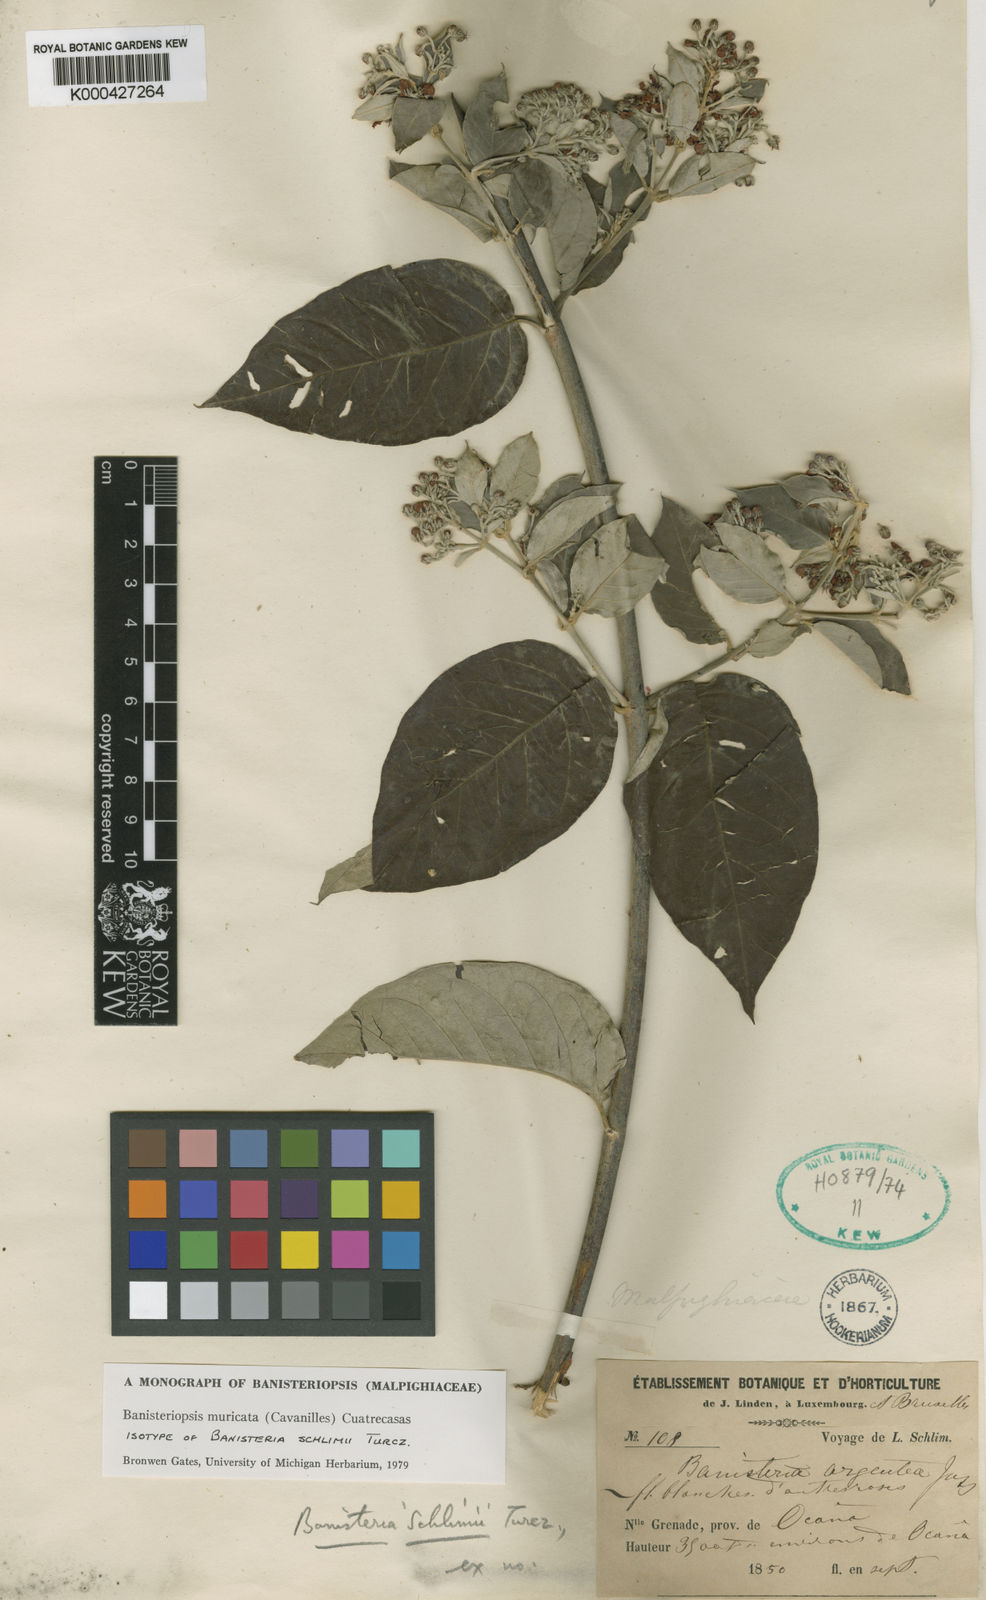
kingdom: Plantae
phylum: Tracheophyta
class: Magnoliopsida
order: Malpighiales
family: Malpighiaceae
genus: Banisteriopsis
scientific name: Banisteriopsis muricata
